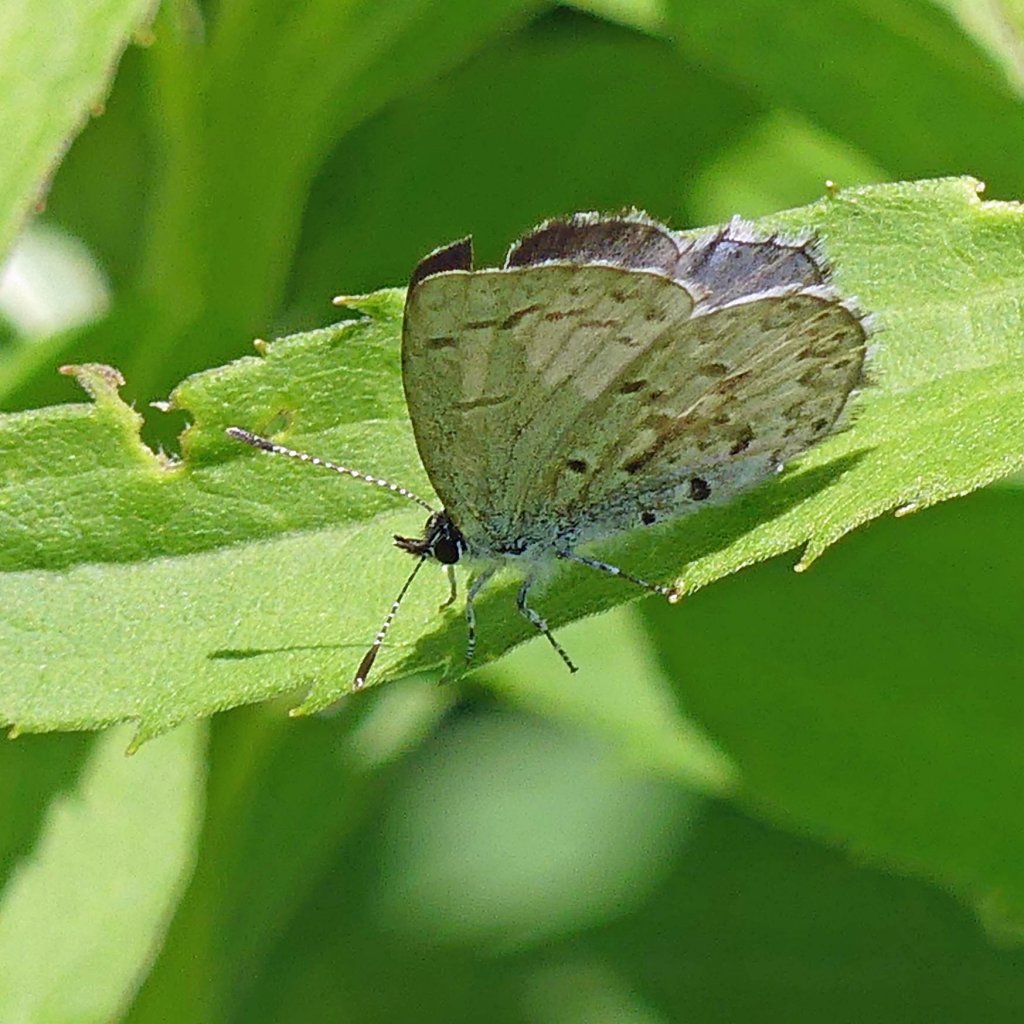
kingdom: Animalia
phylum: Arthropoda
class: Insecta
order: Lepidoptera
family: Lycaenidae
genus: Celastrina
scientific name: Celastrina
